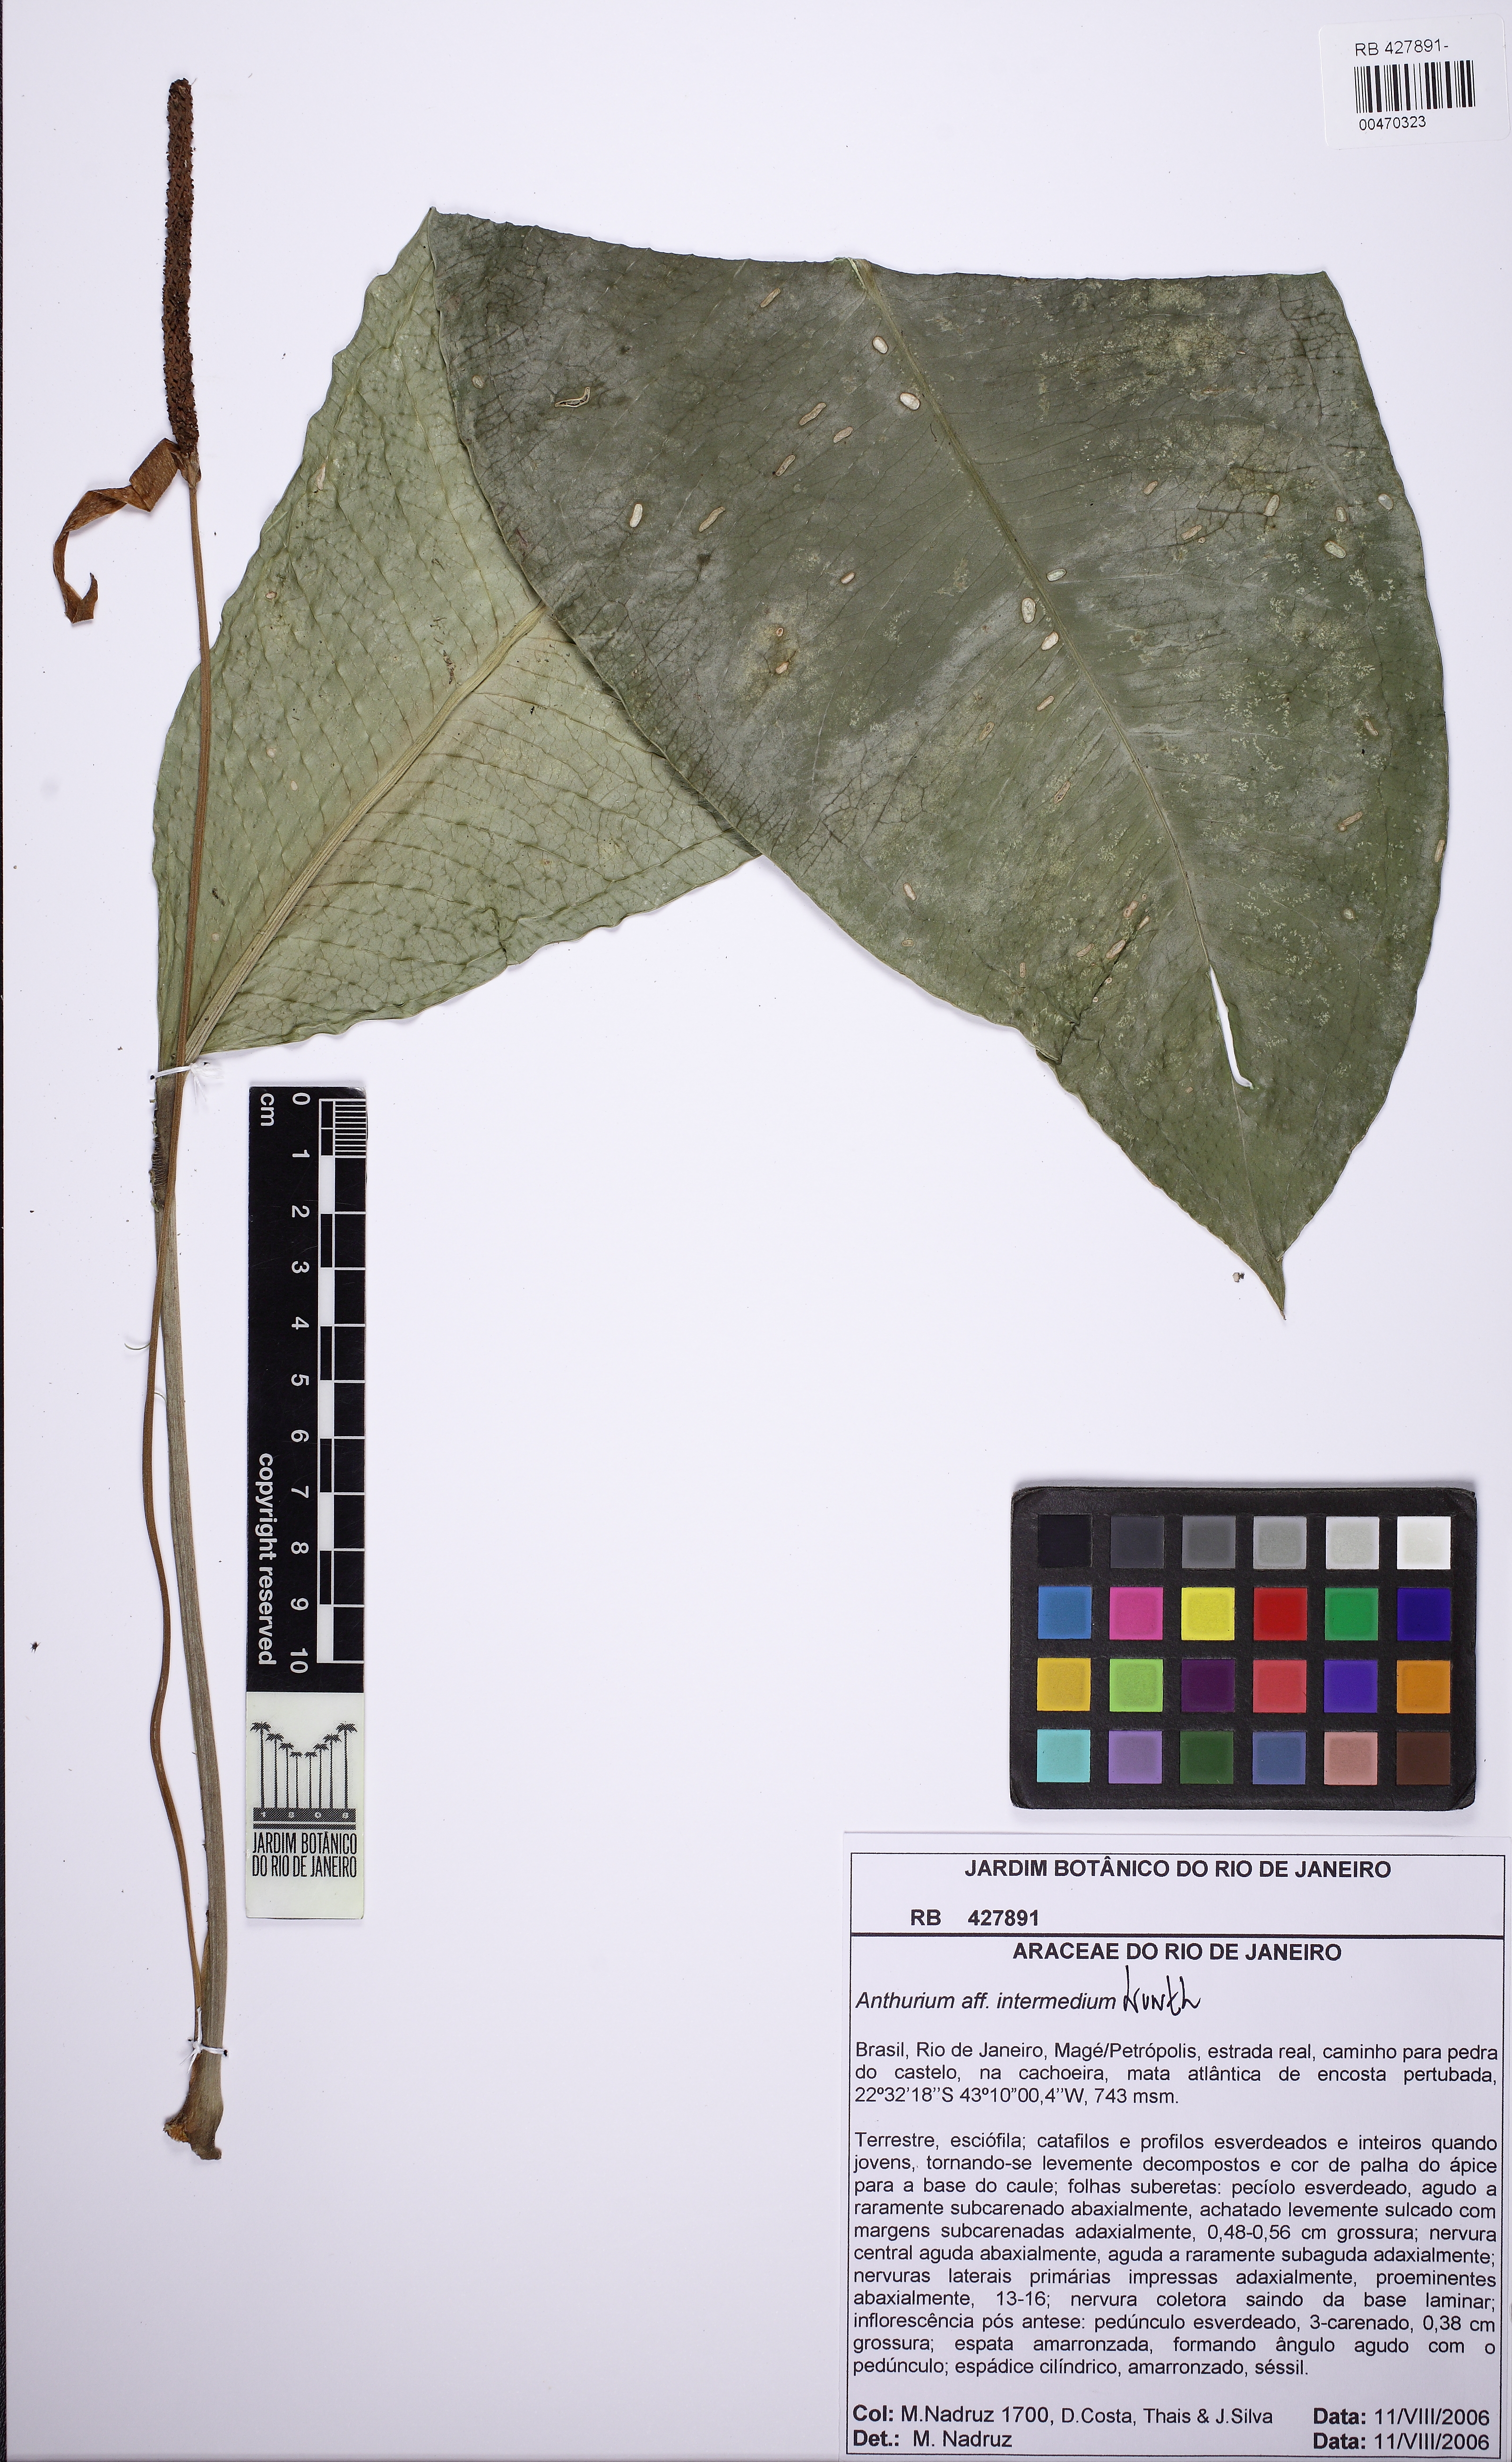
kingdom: Plantae
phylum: Tracheophyta
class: Liliopsida
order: Alismatales
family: Araceae
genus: Anthurium
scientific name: Anthurium intermedium
